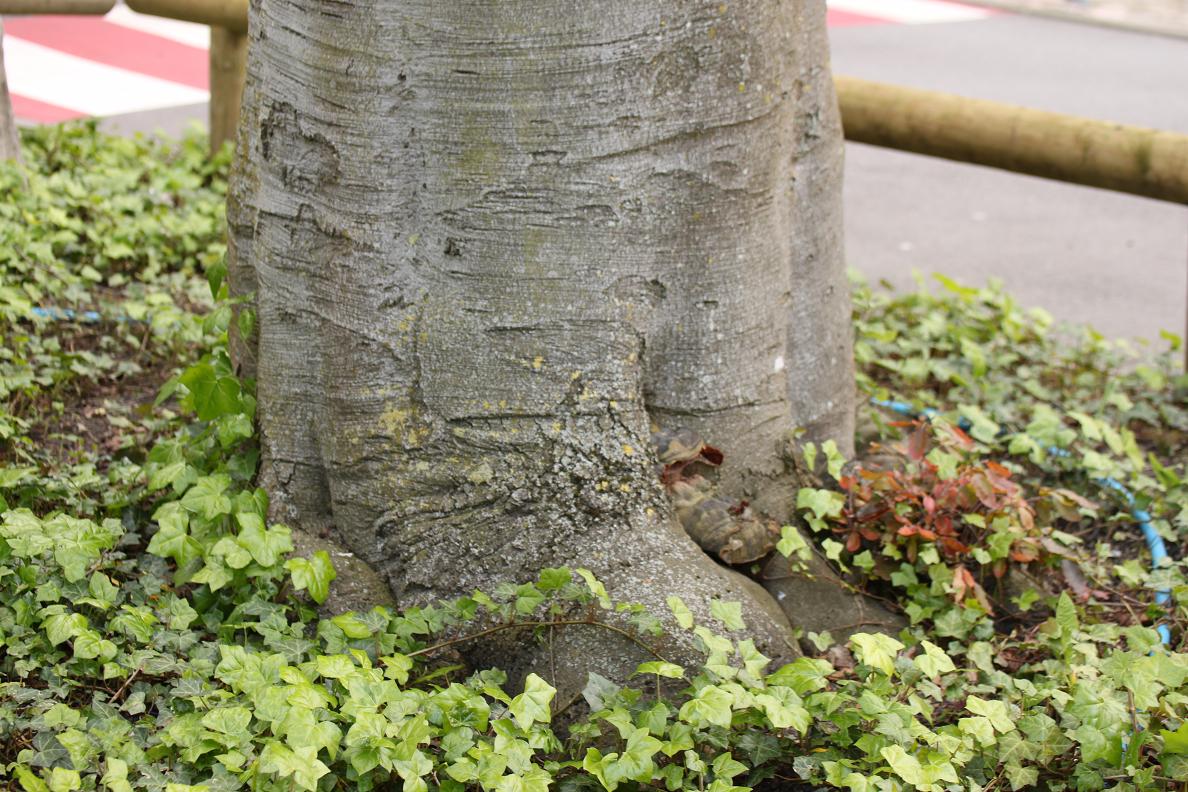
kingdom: Fungi
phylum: Basidiomycota
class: Agaricomycetes
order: Polyporales
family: Polyporaceae
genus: Ganoderma
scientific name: Ganoderma lucidum
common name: skinnende lakporesvamp
